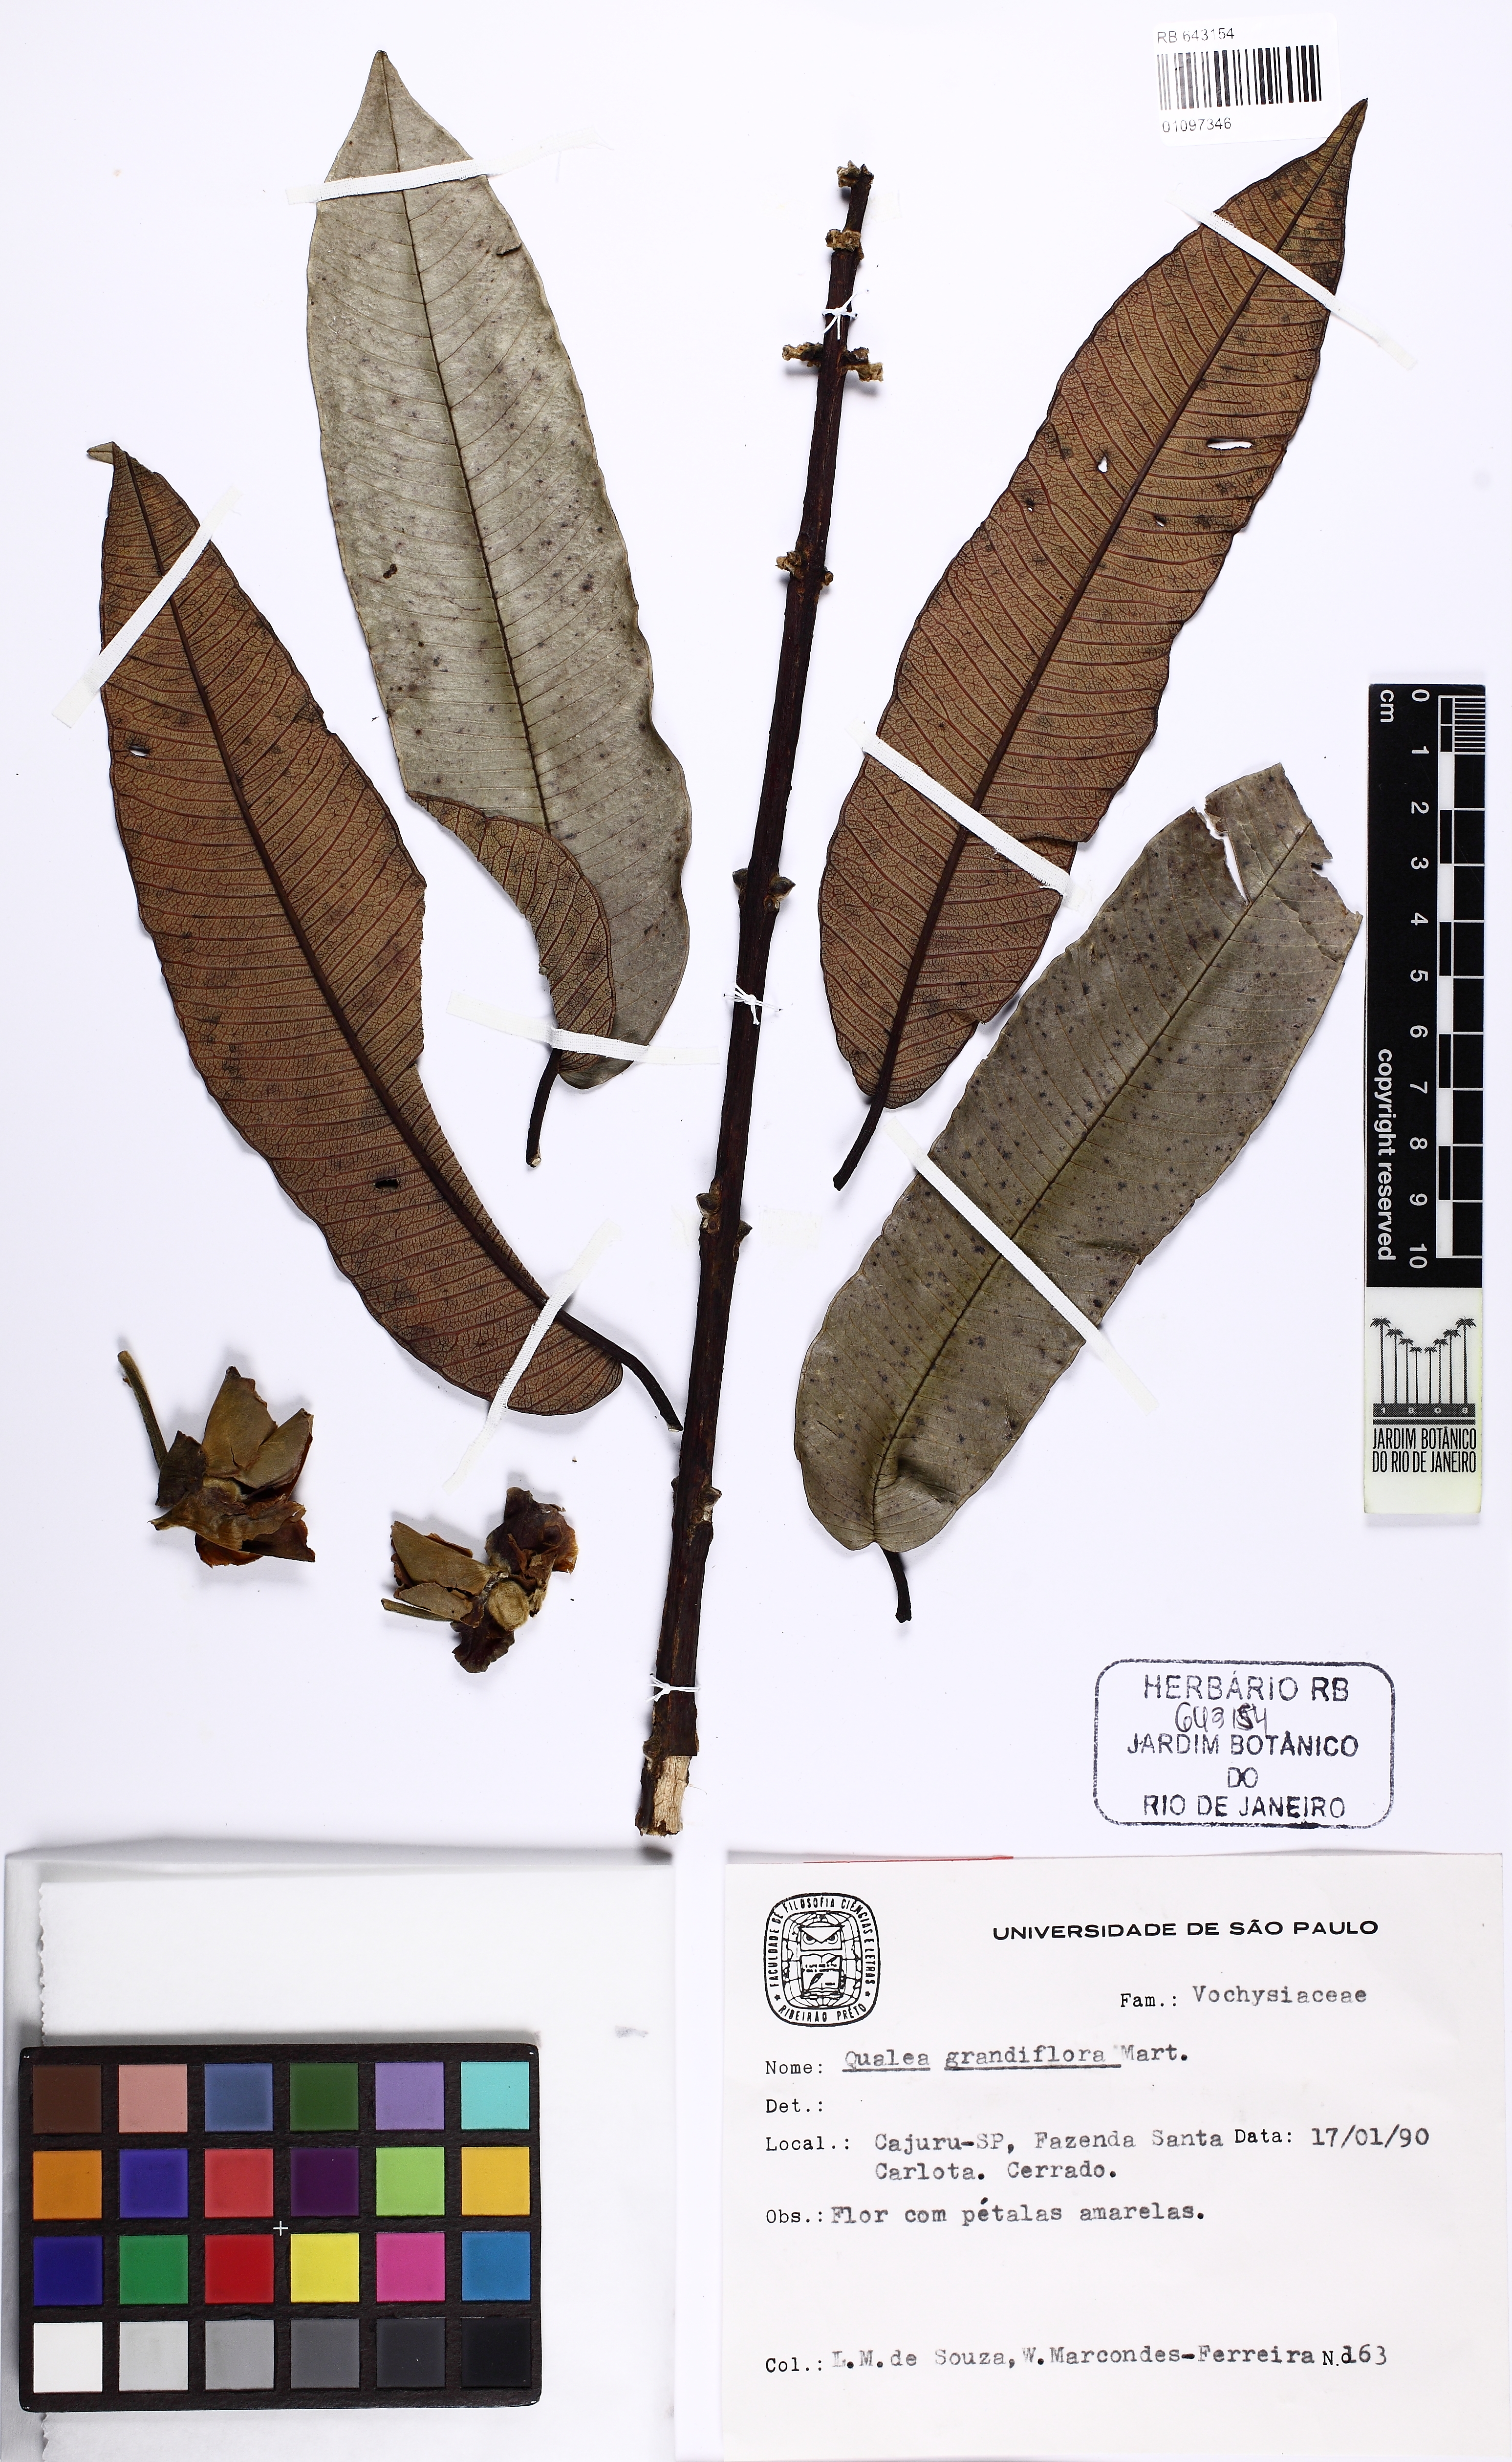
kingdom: Plantae
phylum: Tracheophyta
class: Magnoliopsida
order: Myrtales
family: Vochysiaceae
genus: Qualea
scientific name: Qualea grandiflora
